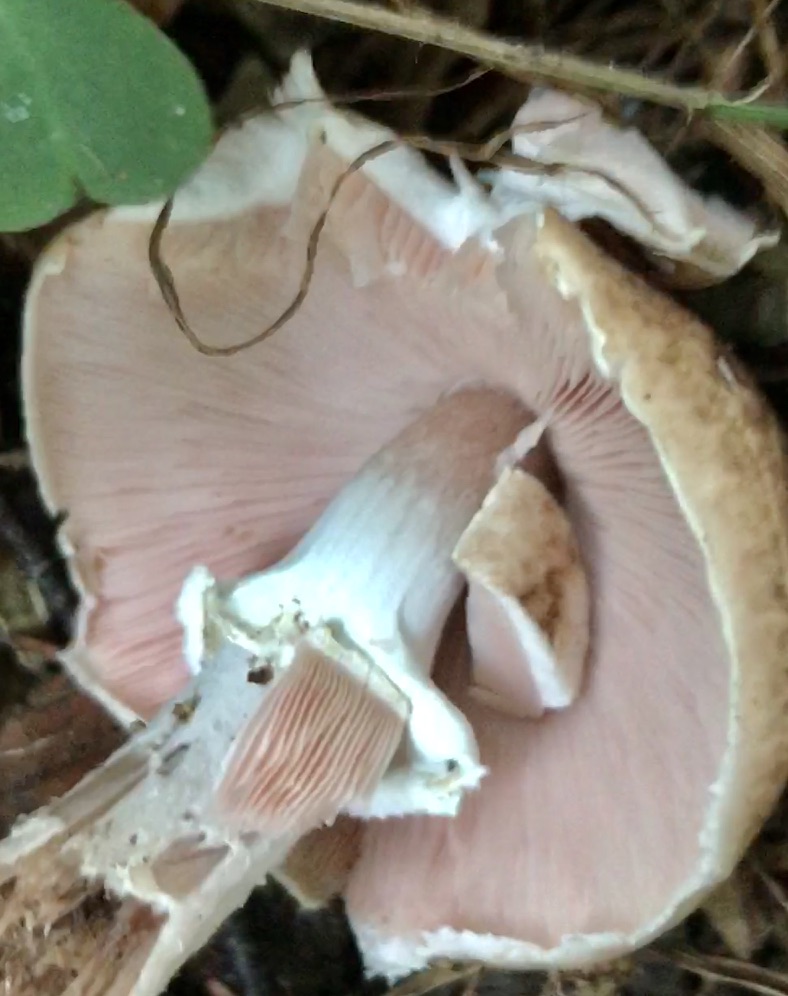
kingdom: Fungi
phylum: Basidiomycota
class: Agaricomycetes
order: Agaricales
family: Agaricaceae
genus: Agaricus
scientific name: Agaricus impudicus
